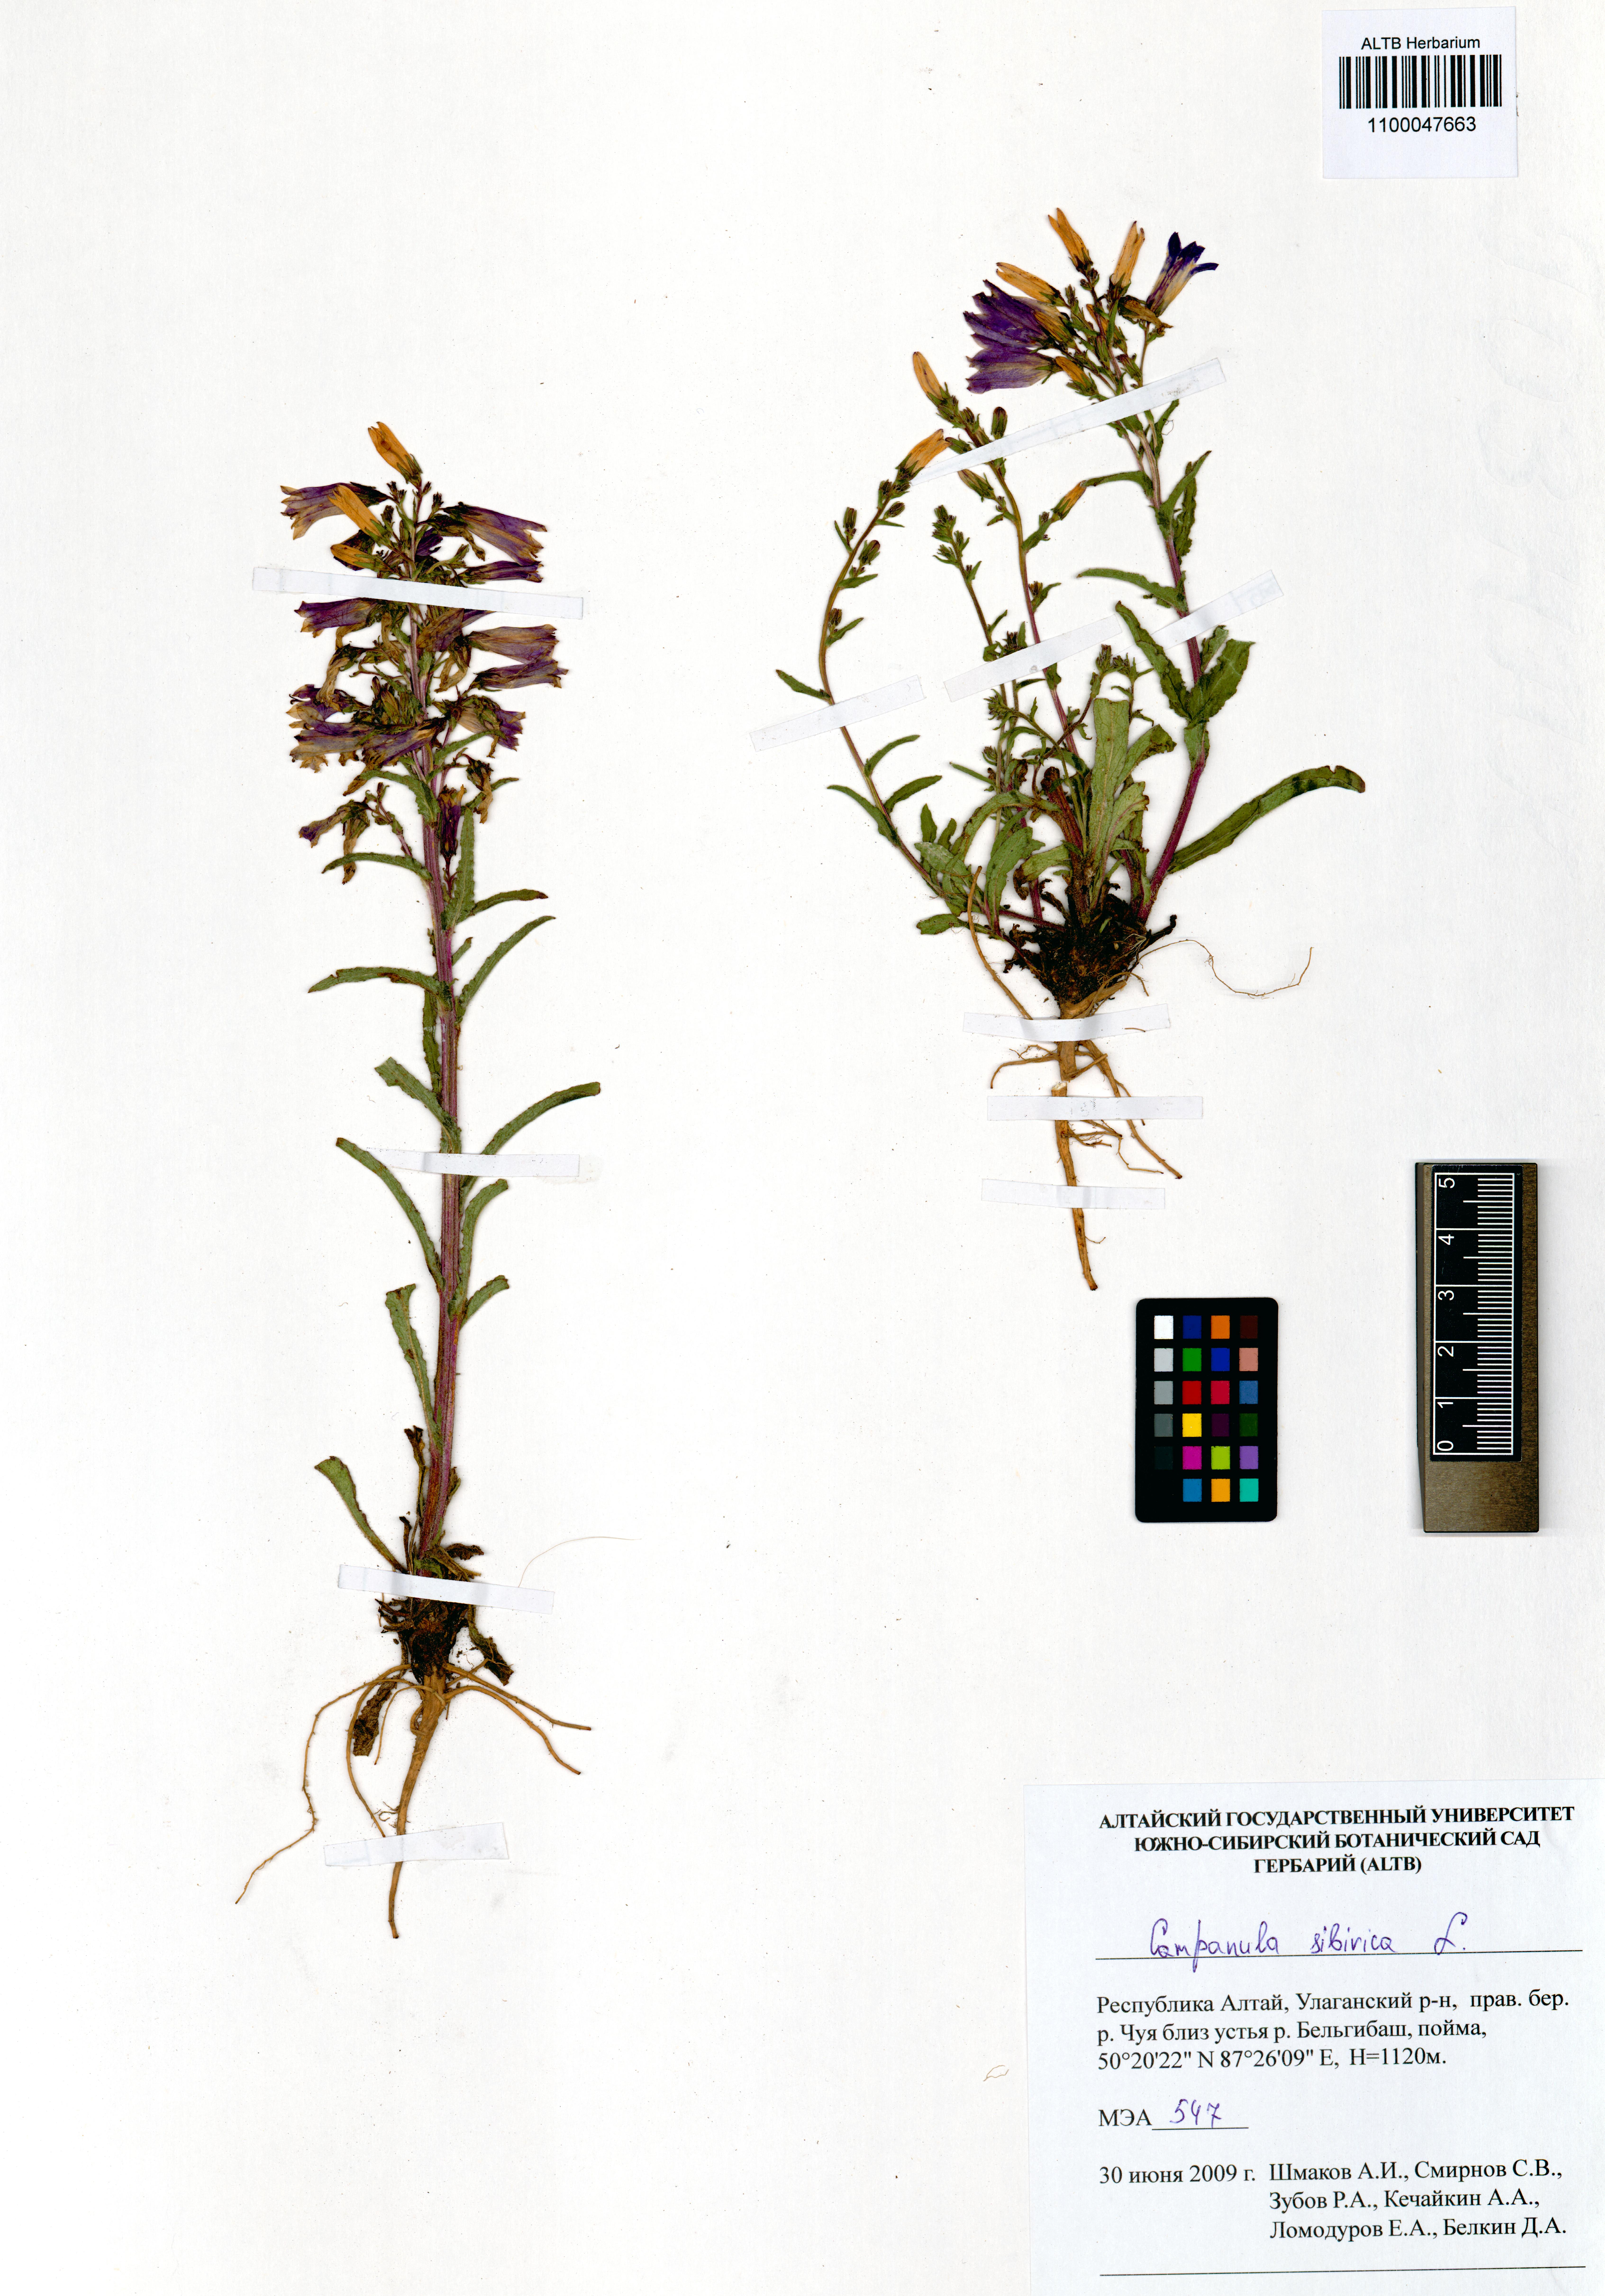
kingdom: Plantae
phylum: Tracheophyta
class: Magnoliopsida
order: Asterales
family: Campanulaceae
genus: Campanula
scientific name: Campanula sibirica
